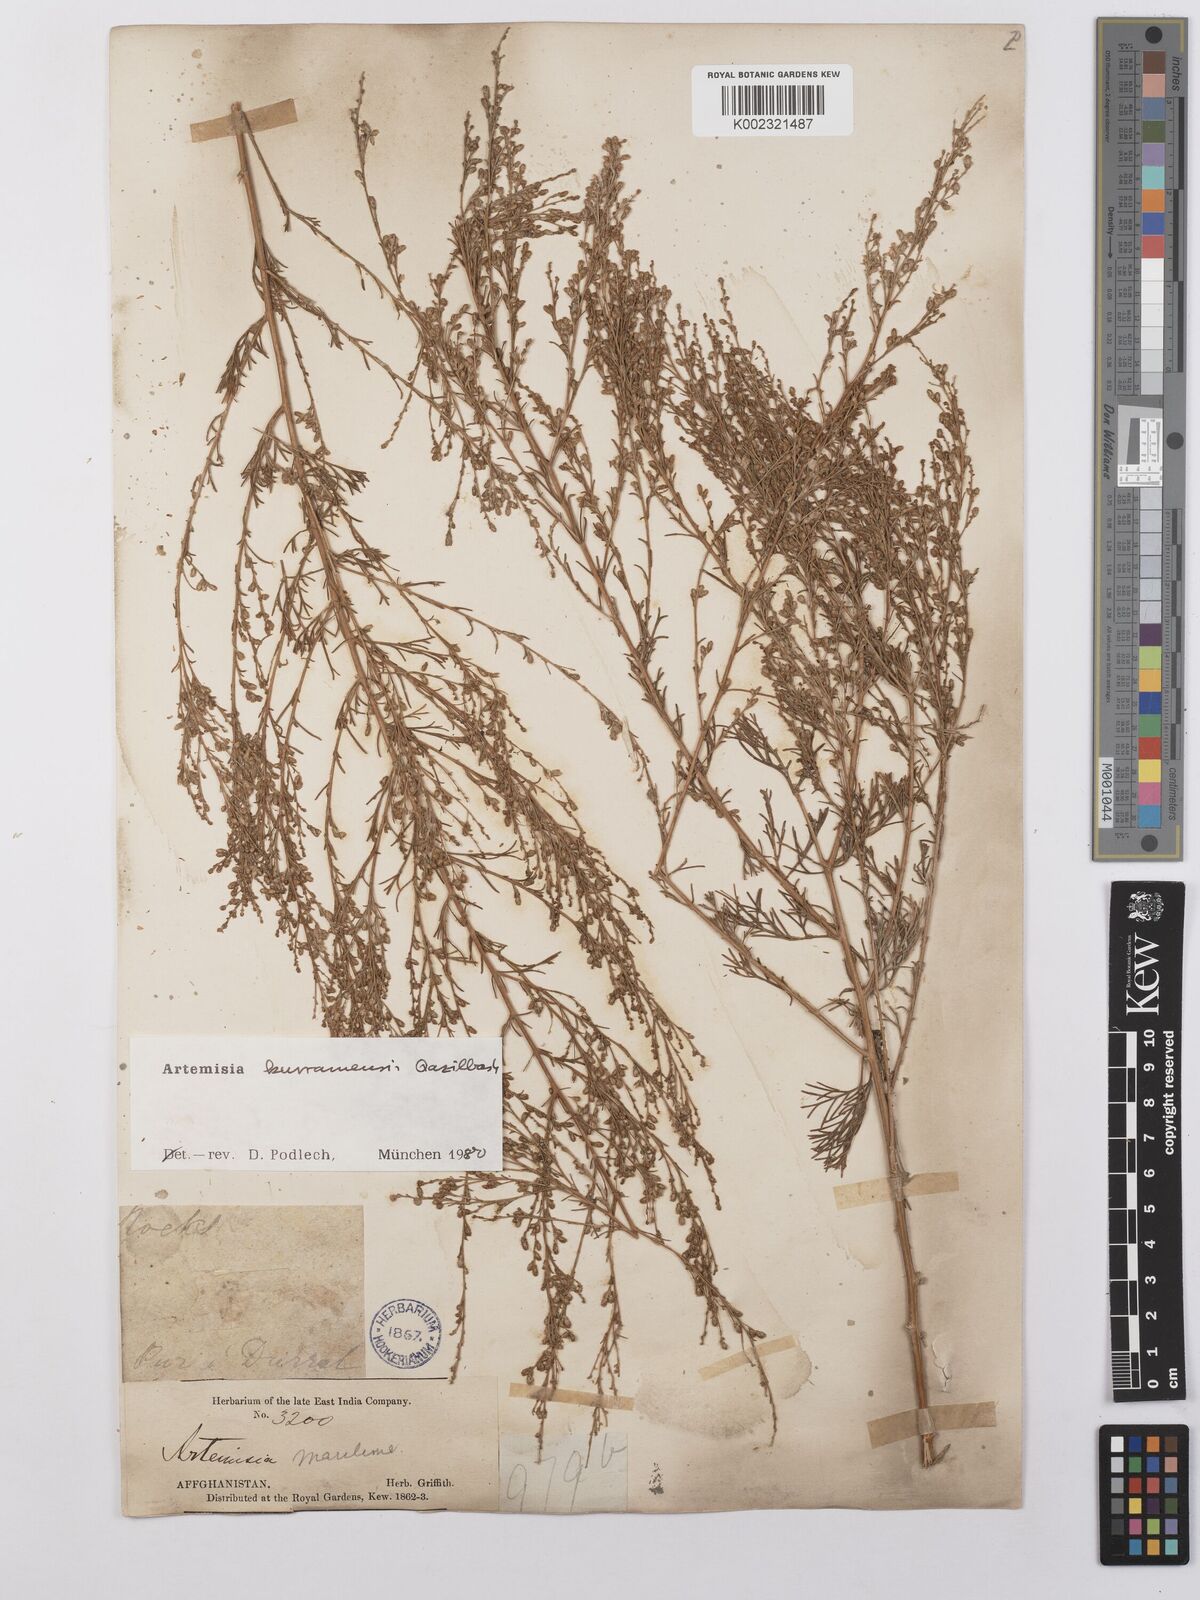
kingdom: Plantae
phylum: Tracheophyta
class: Magnoliopsida
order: Asterales
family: Asteraceae
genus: Artemisia
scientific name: Artemisia kurramensis
